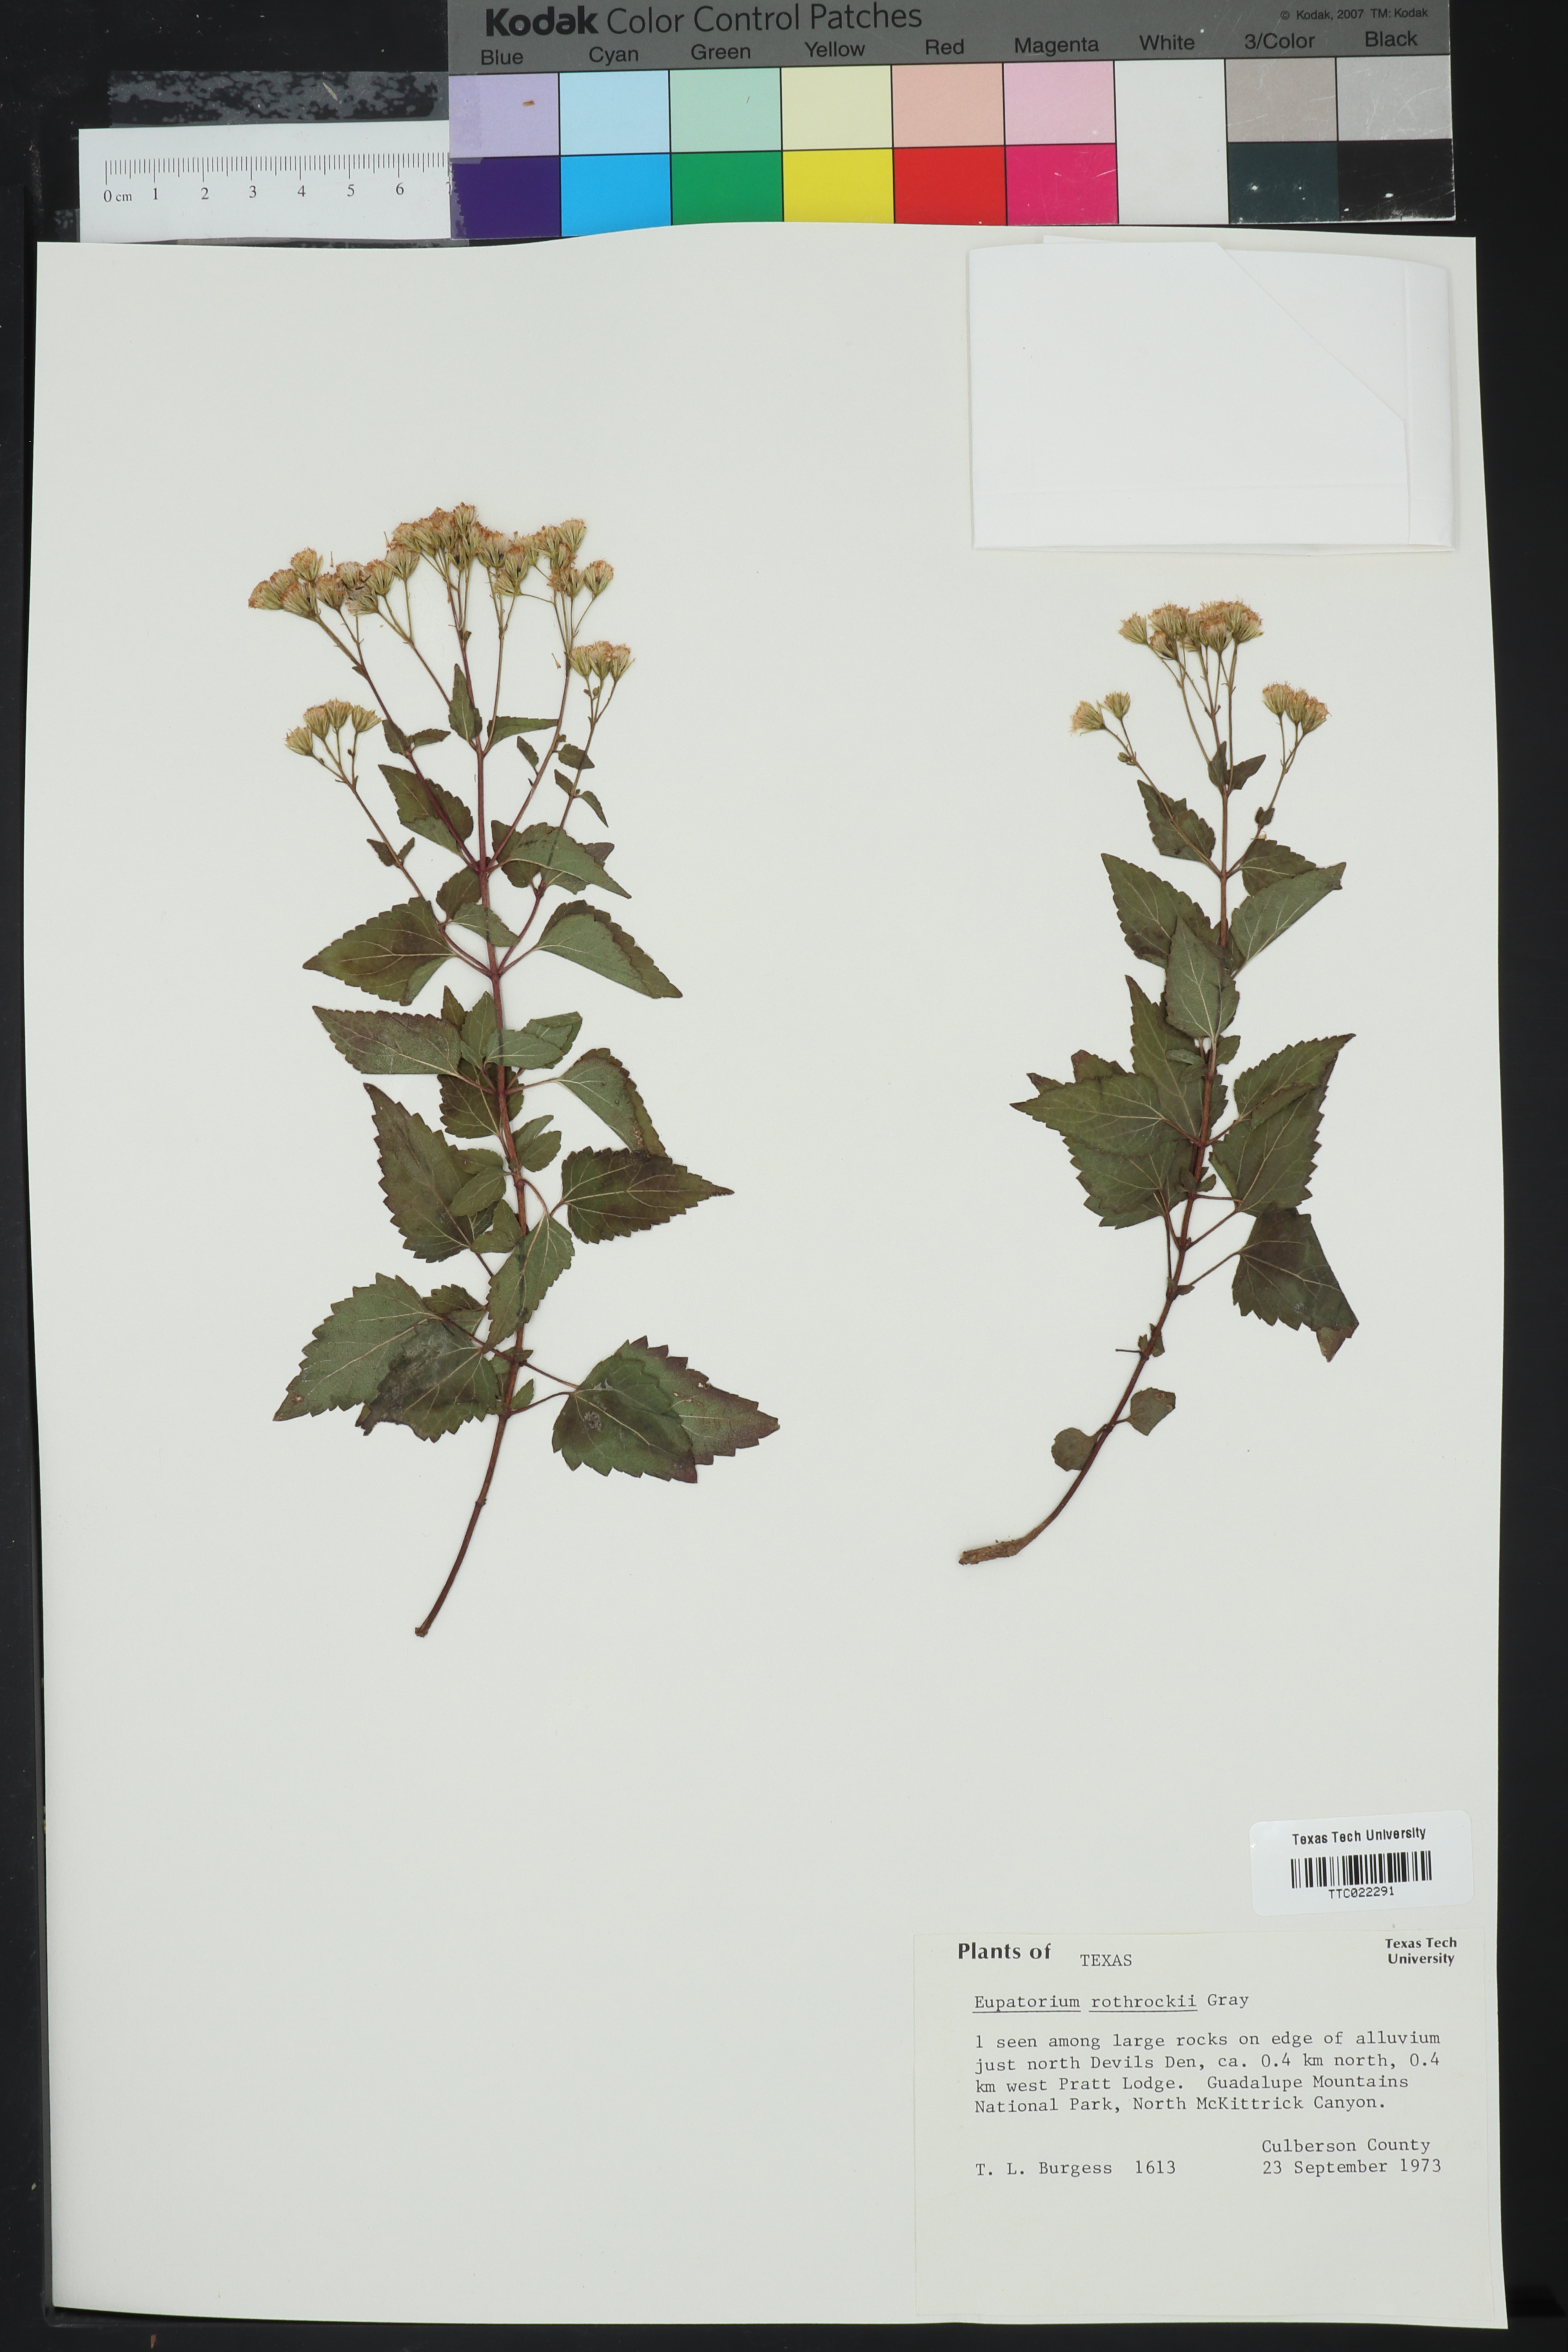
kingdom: Plantae
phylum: Tracheophyta
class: Magnoliopsida
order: Asterales
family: Asteraceae
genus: Ageratina
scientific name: Ageratina rothrockii
